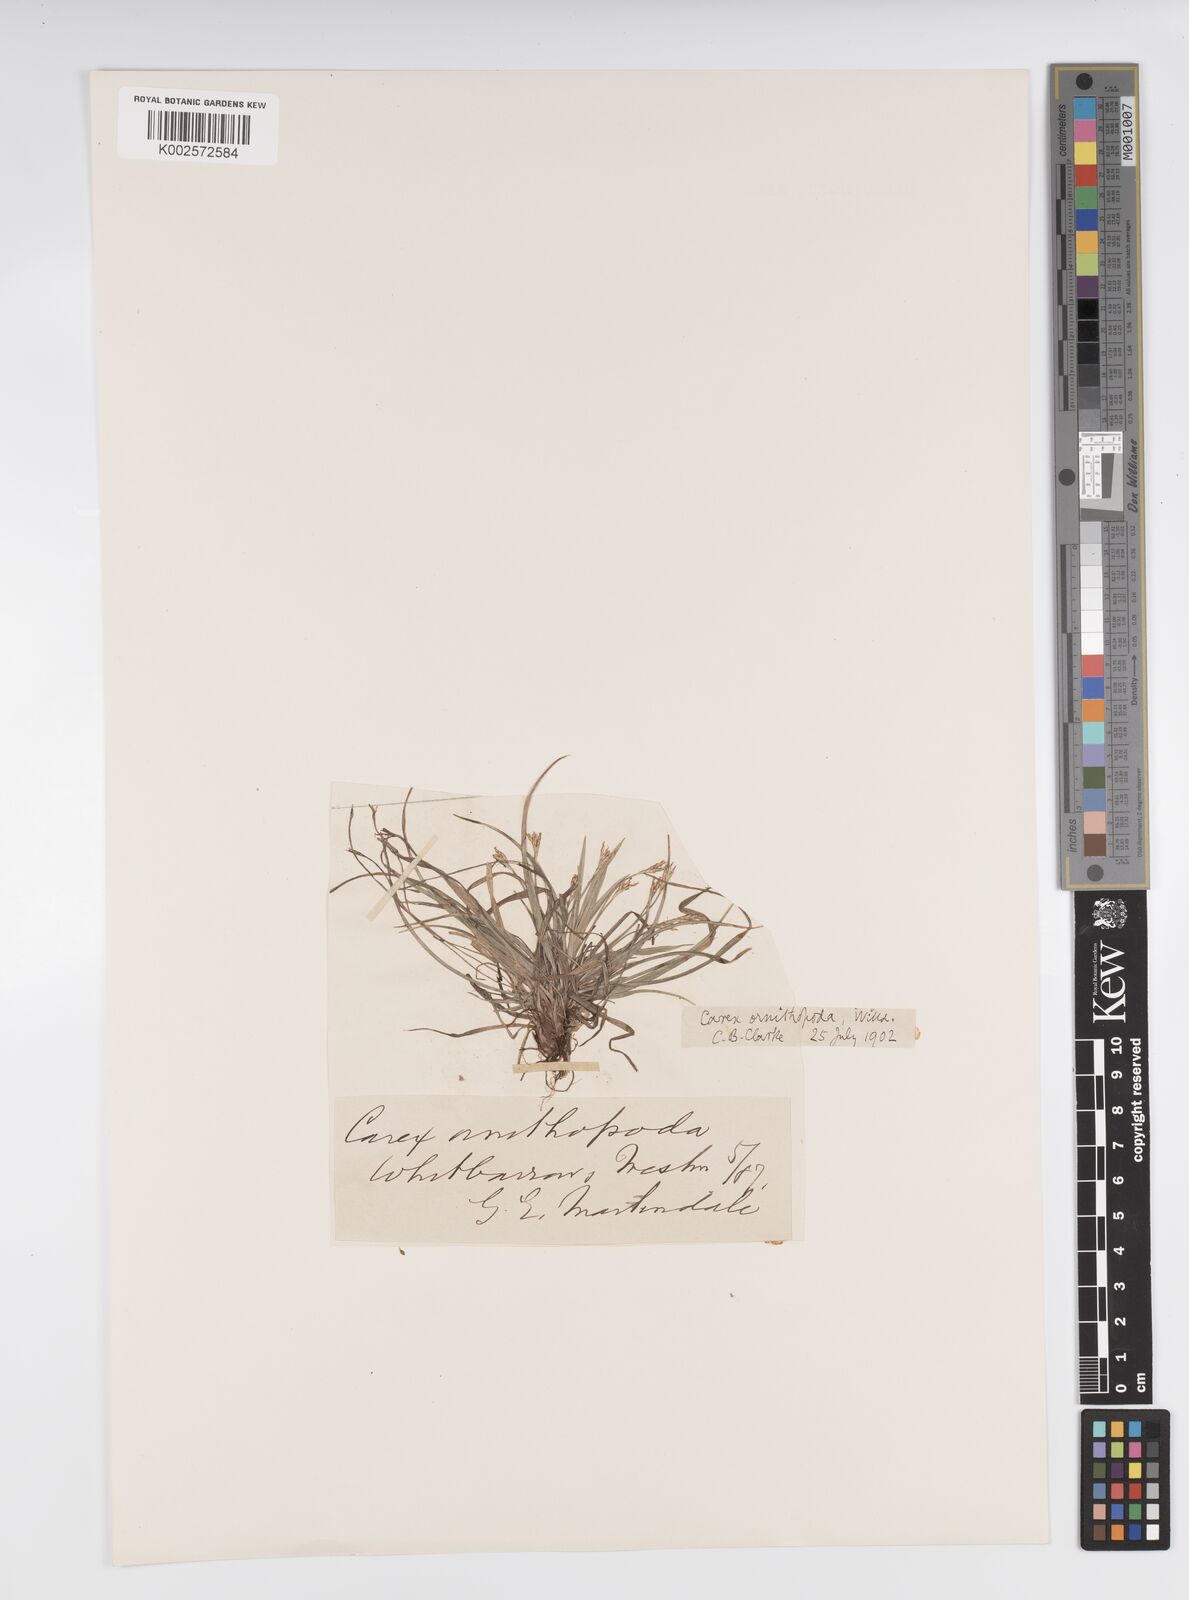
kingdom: Plantae
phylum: Tracheophyta
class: Liliopsida
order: Poales
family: Cyperaceae
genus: Carex
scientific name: Carex ornithopoda
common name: Bird's-foot sedge
